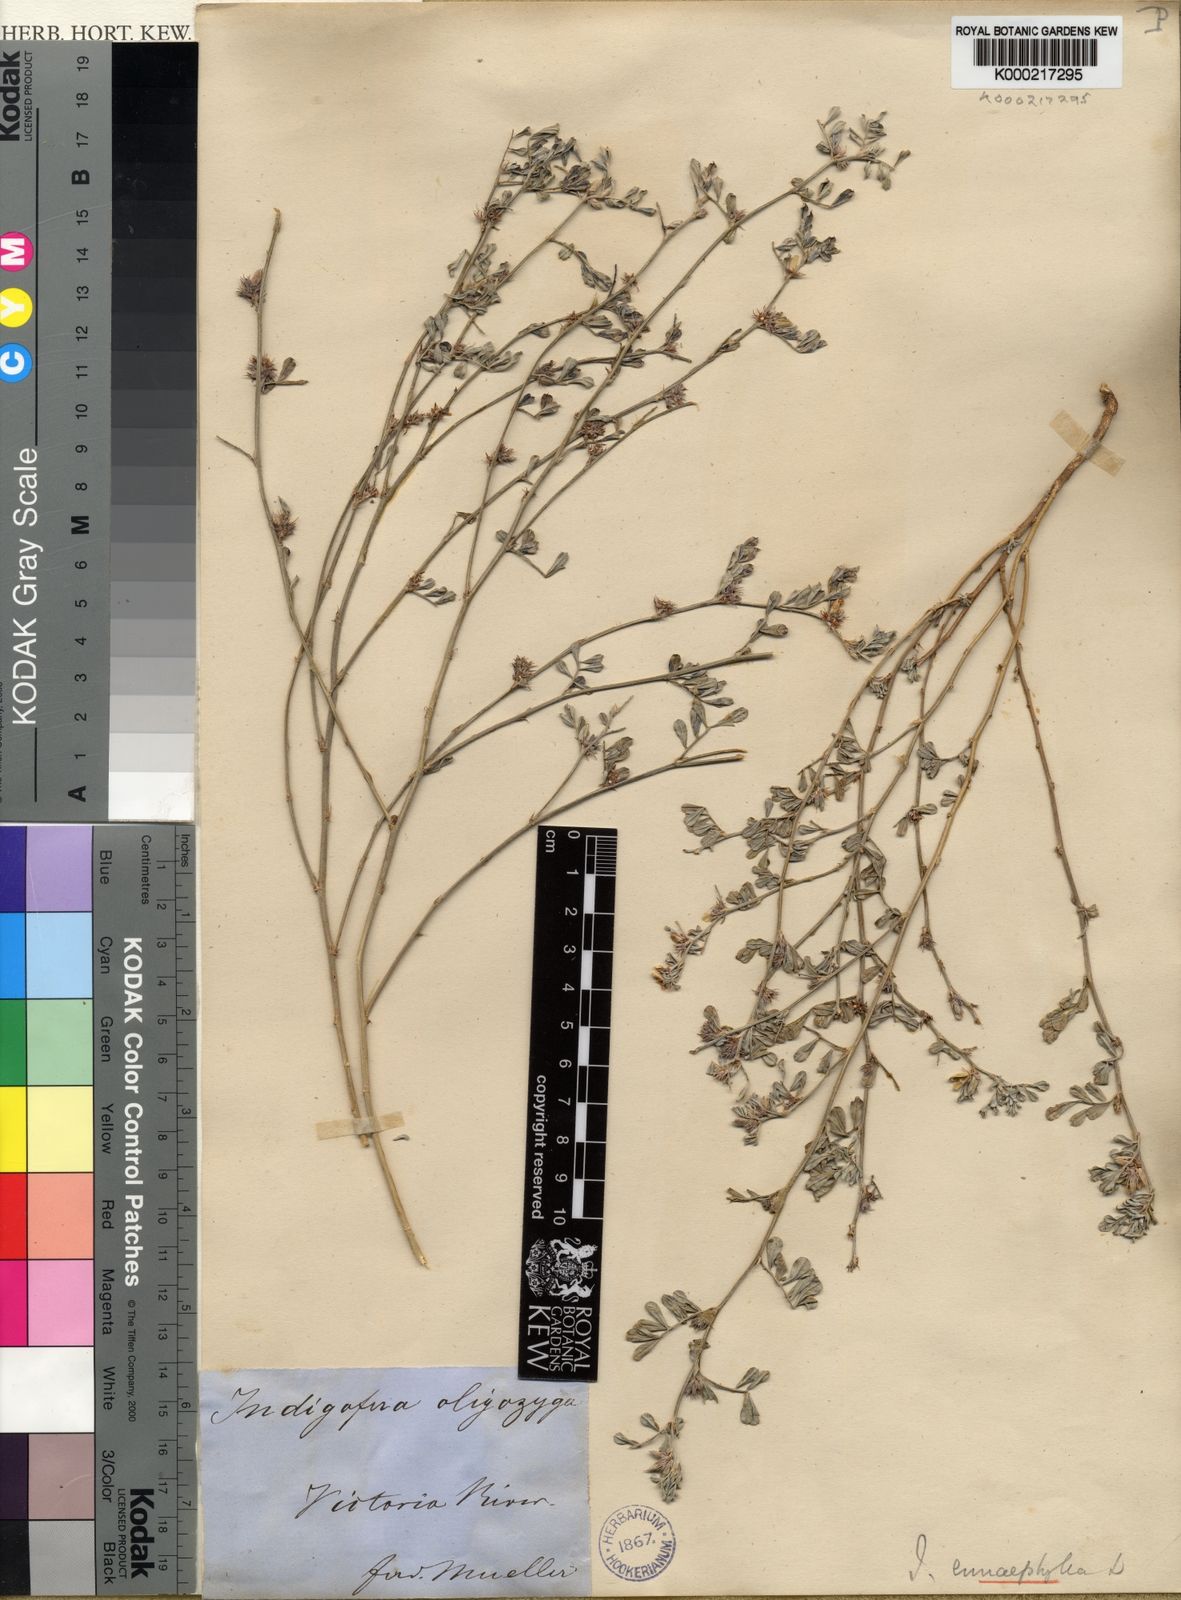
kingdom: Plantae
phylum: Tracheophyta
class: Magnoliopsida
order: Fabales
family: Fabaceae
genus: Indigofera
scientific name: Indigofera linnaei
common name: Nine-leaf indigo
